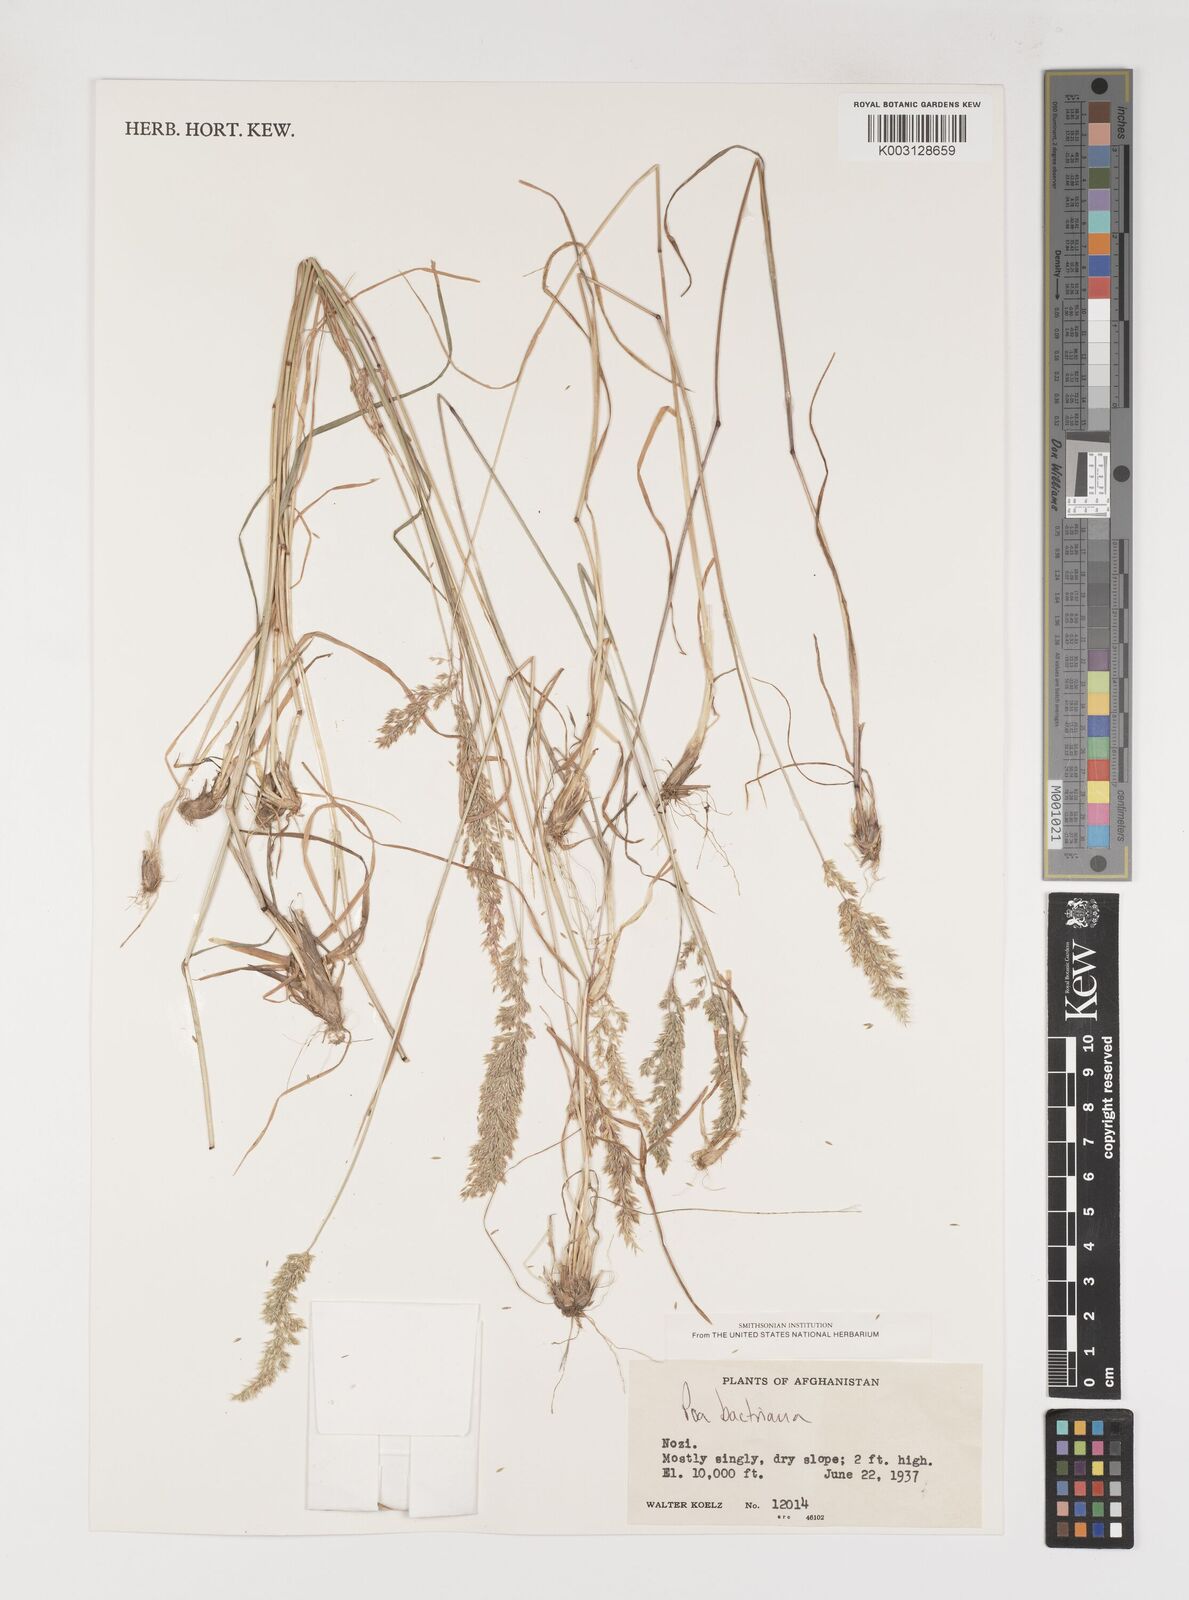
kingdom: Plantae
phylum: Tracheophyta
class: Liliopsida
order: Poales
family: Poaceae
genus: Poa
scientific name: Poa bactriana
